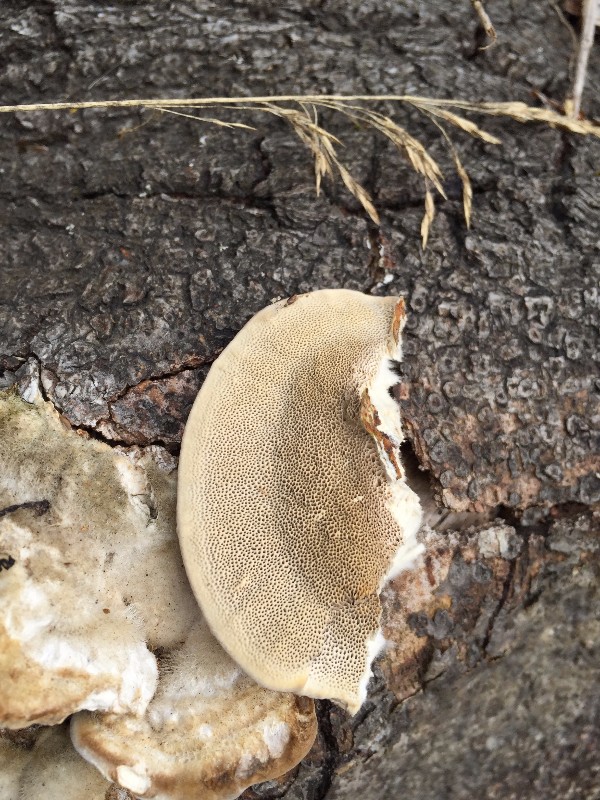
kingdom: Fungi
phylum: Basidiomycota
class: Agaricomycetes
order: Polyporales
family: Polyporaceae
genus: Trametes
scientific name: Trametes hirsuta
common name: håret læderporesvamp
